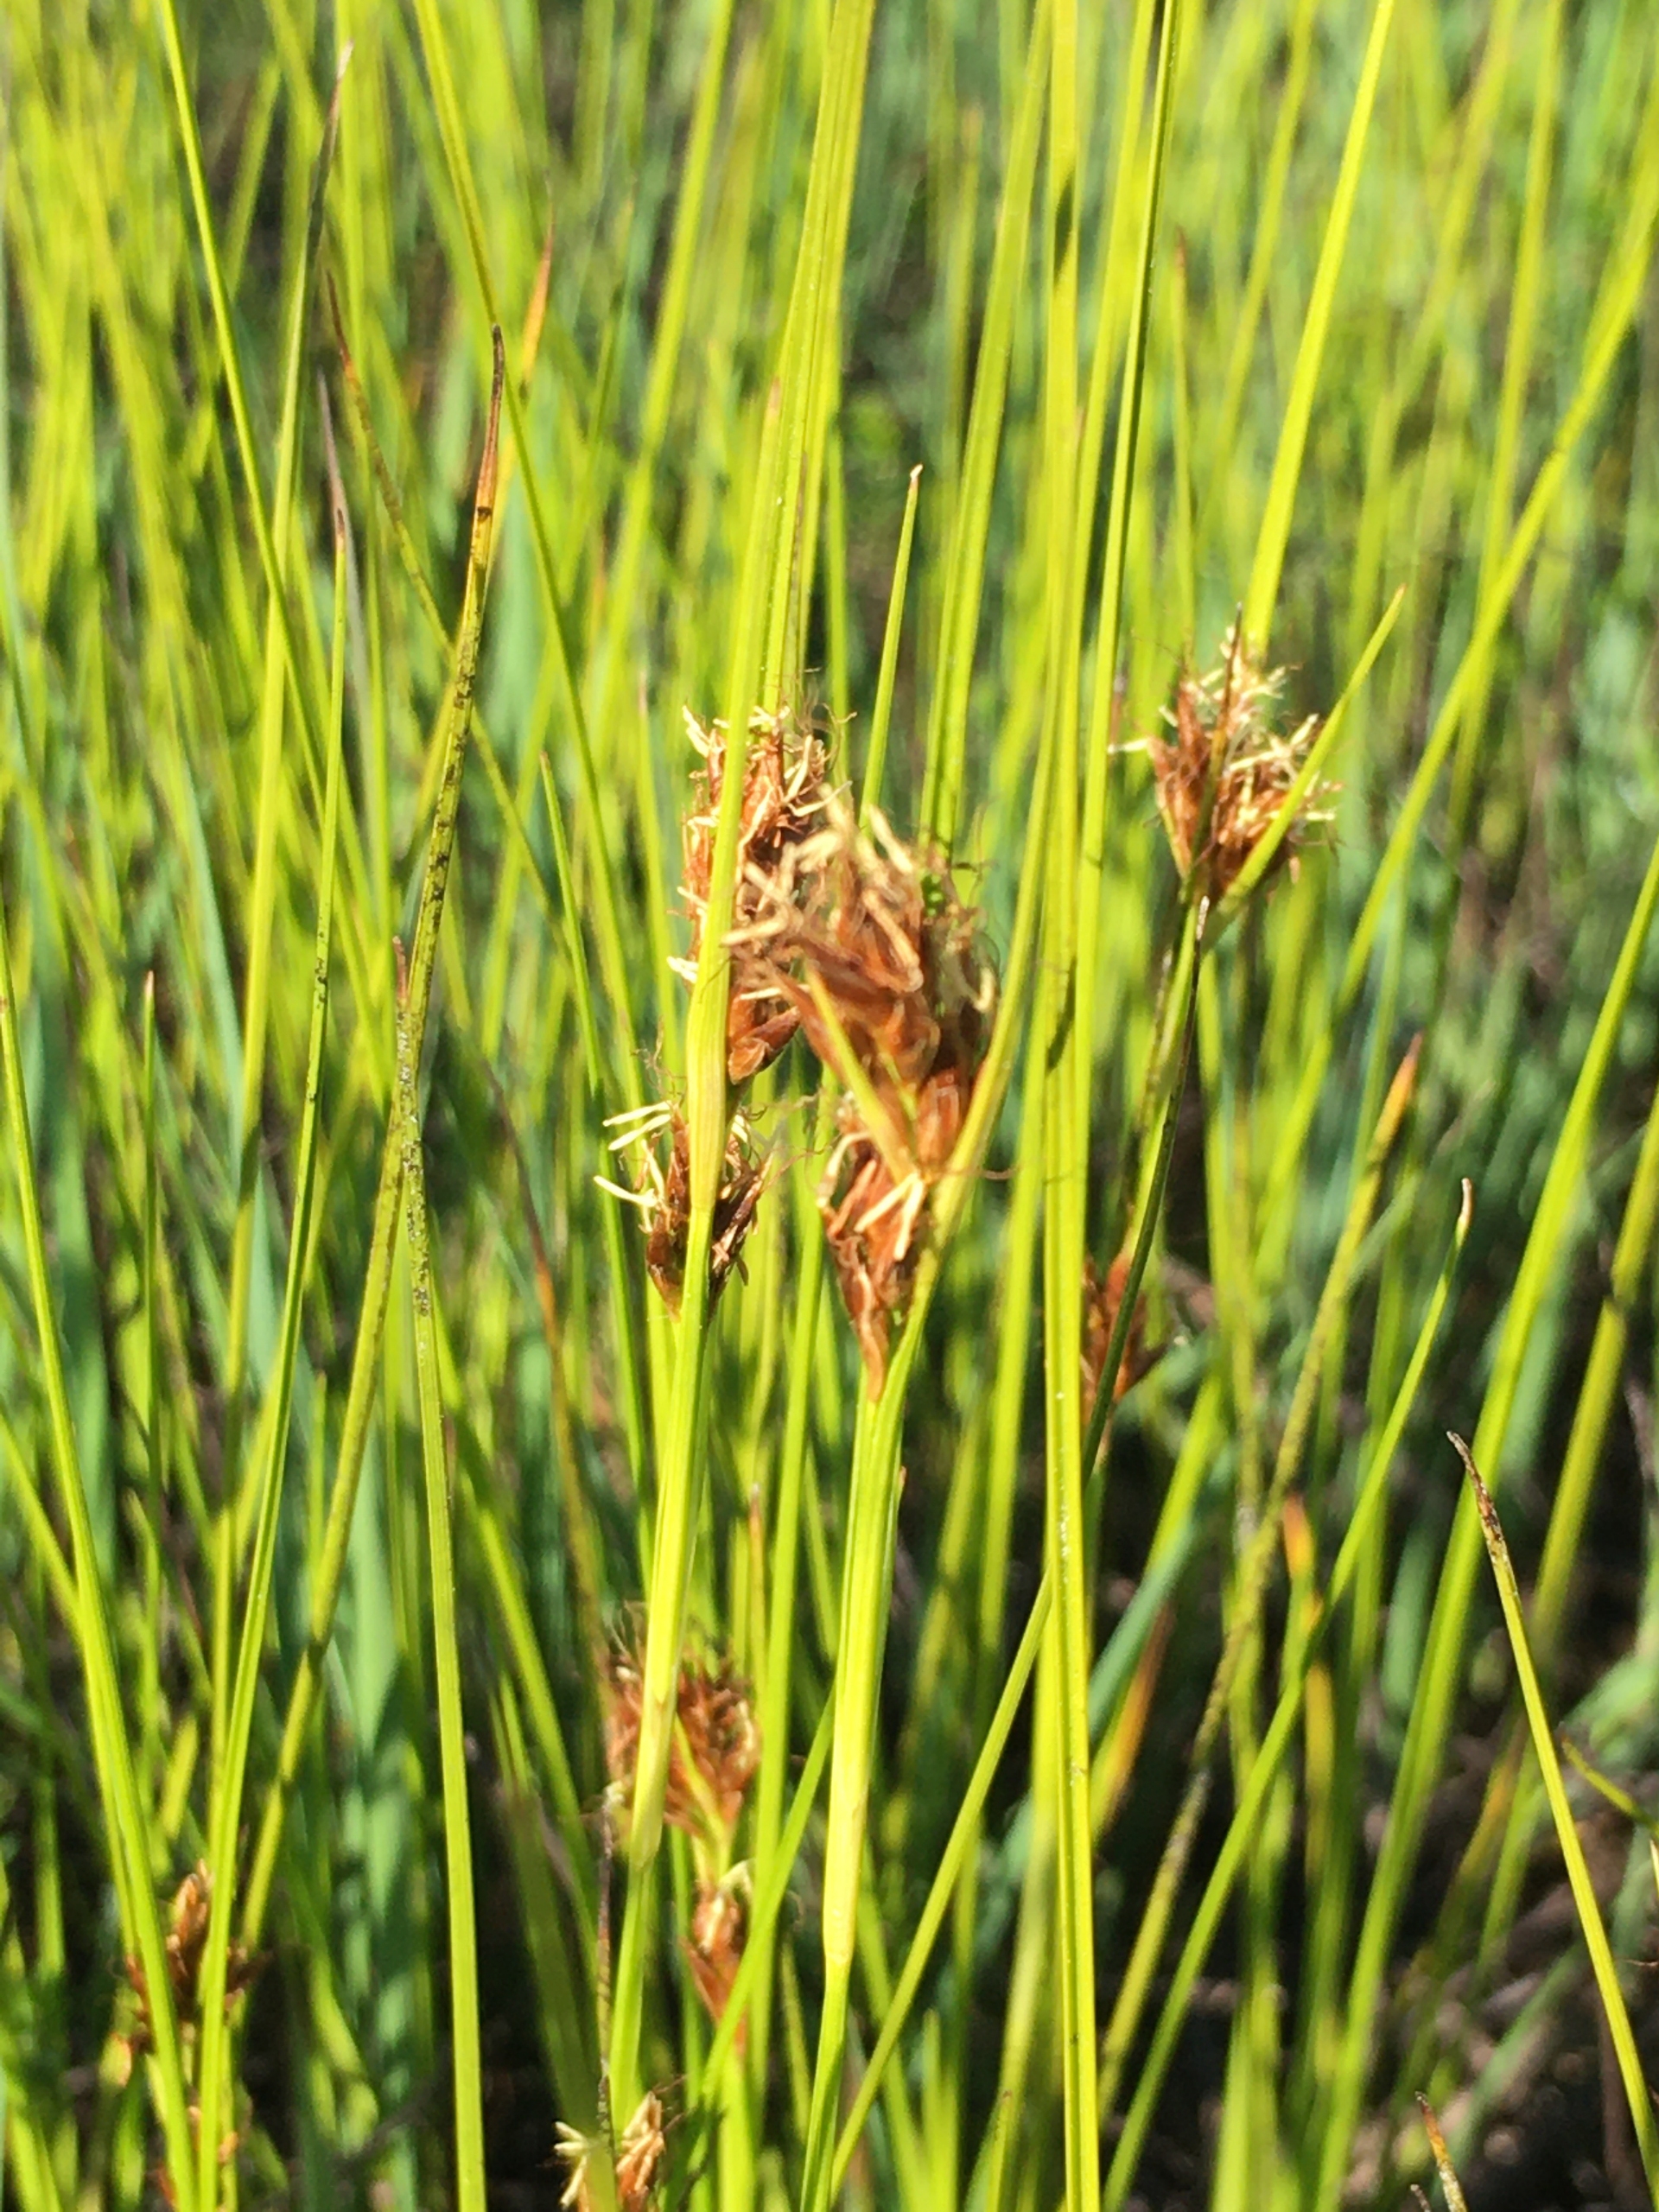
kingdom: Plantae
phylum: Tracheophyta
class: Liliopsida
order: Poales
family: Cyperaceae
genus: Rhynchospora
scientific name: Rhynchospora fusca
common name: Brun næbfrø
